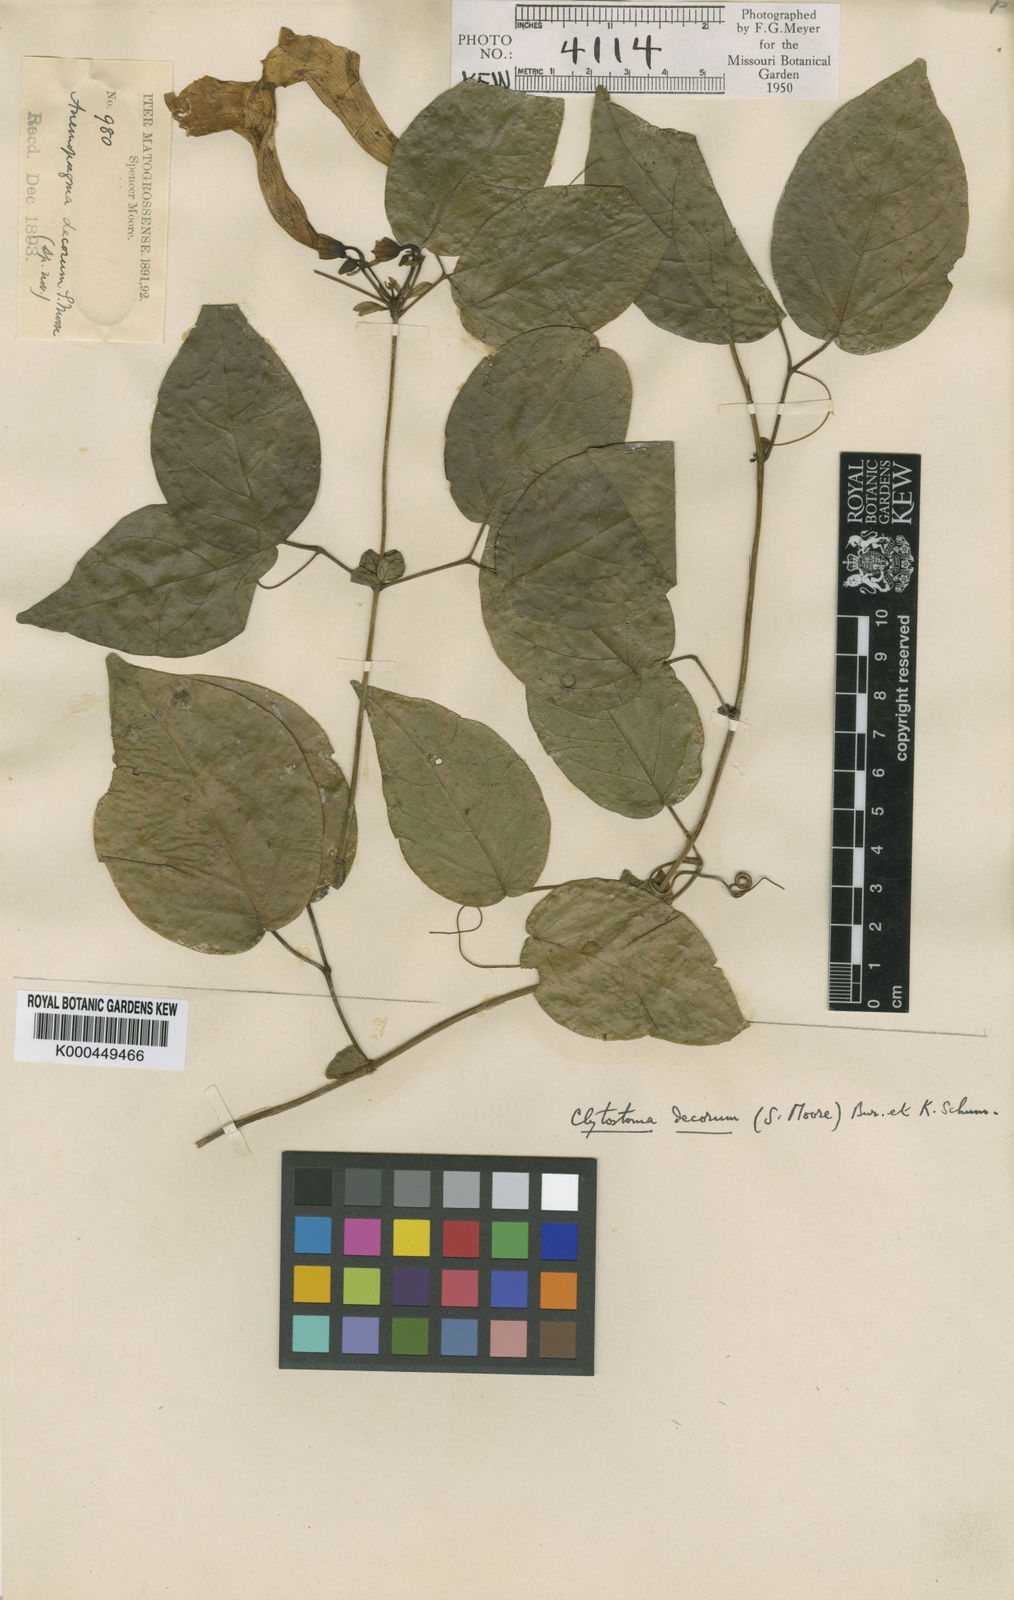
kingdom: Plantae
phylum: Tracheophyta
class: Magnoliopsida
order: Lamiales
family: Bignoniaceae
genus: Bignonia
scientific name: Bignonia decora
